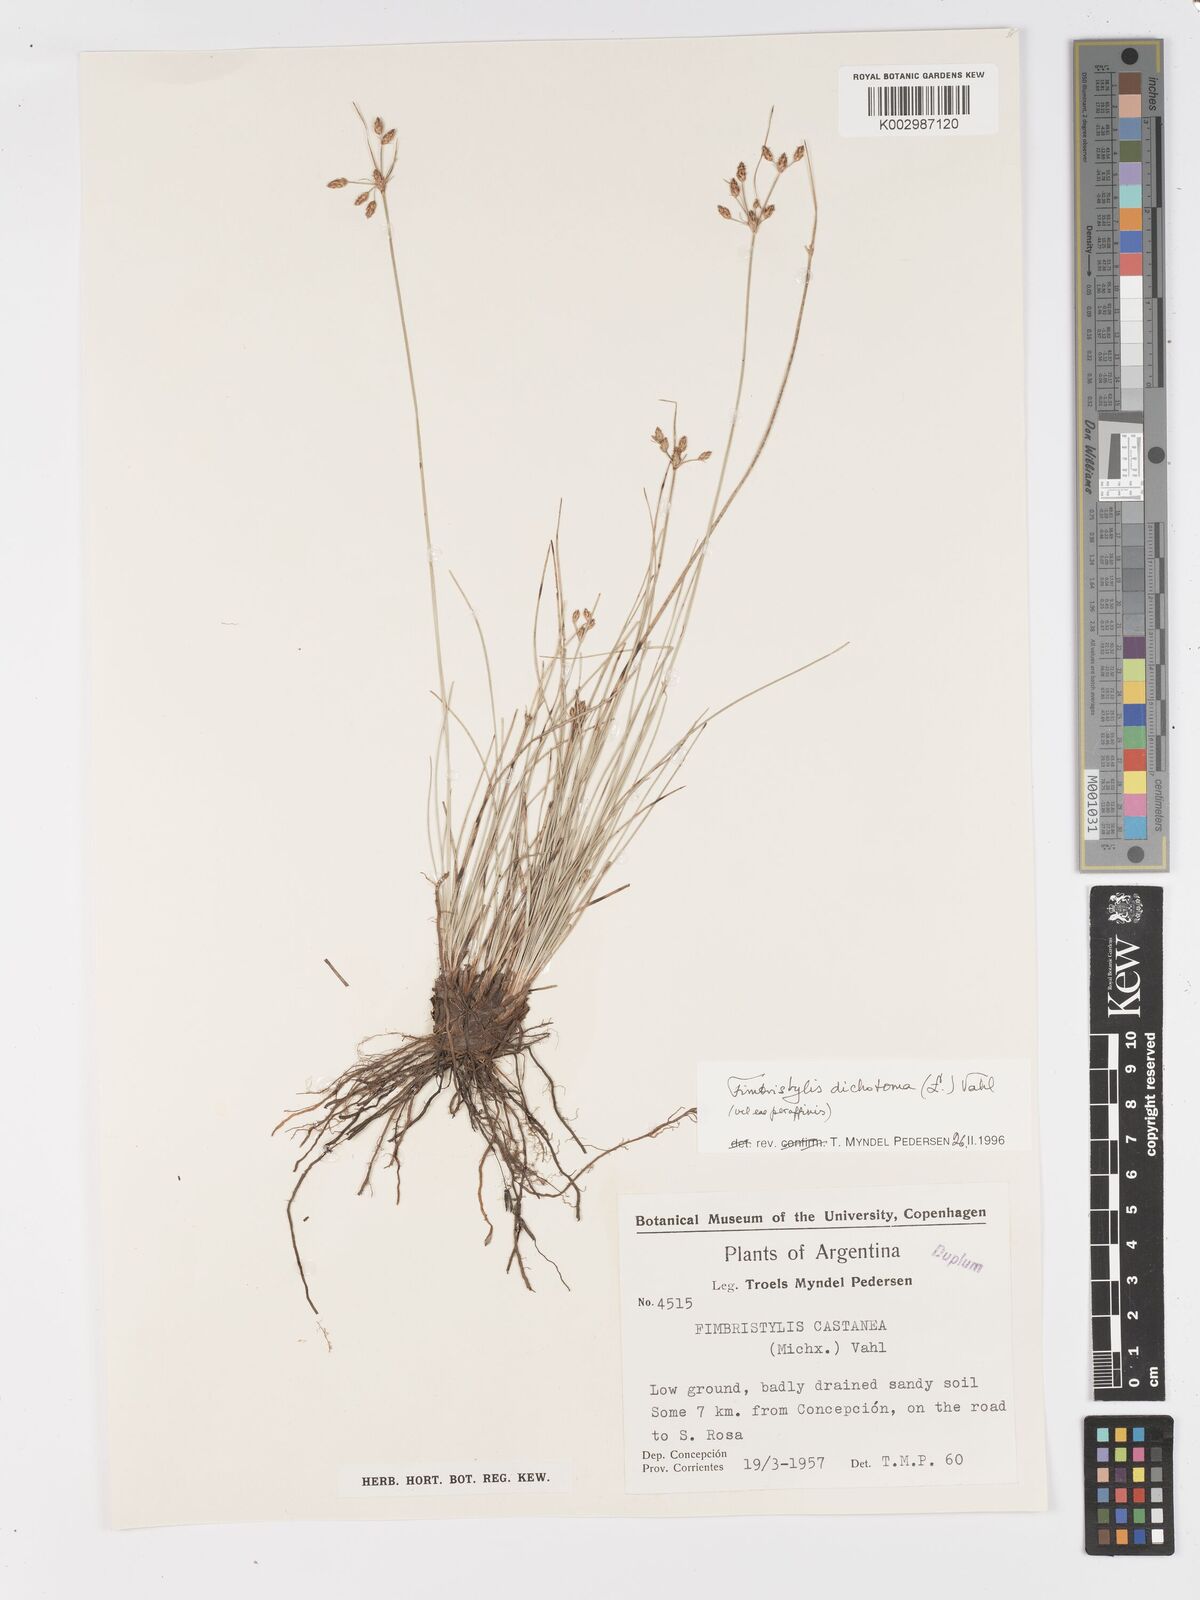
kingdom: Plantae
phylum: Tracheophyta
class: Liliopsida
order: Poales
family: Cyperaceae
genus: Fimbristylis
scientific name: Fimbristylis dichotoma
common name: Forked fimbry
